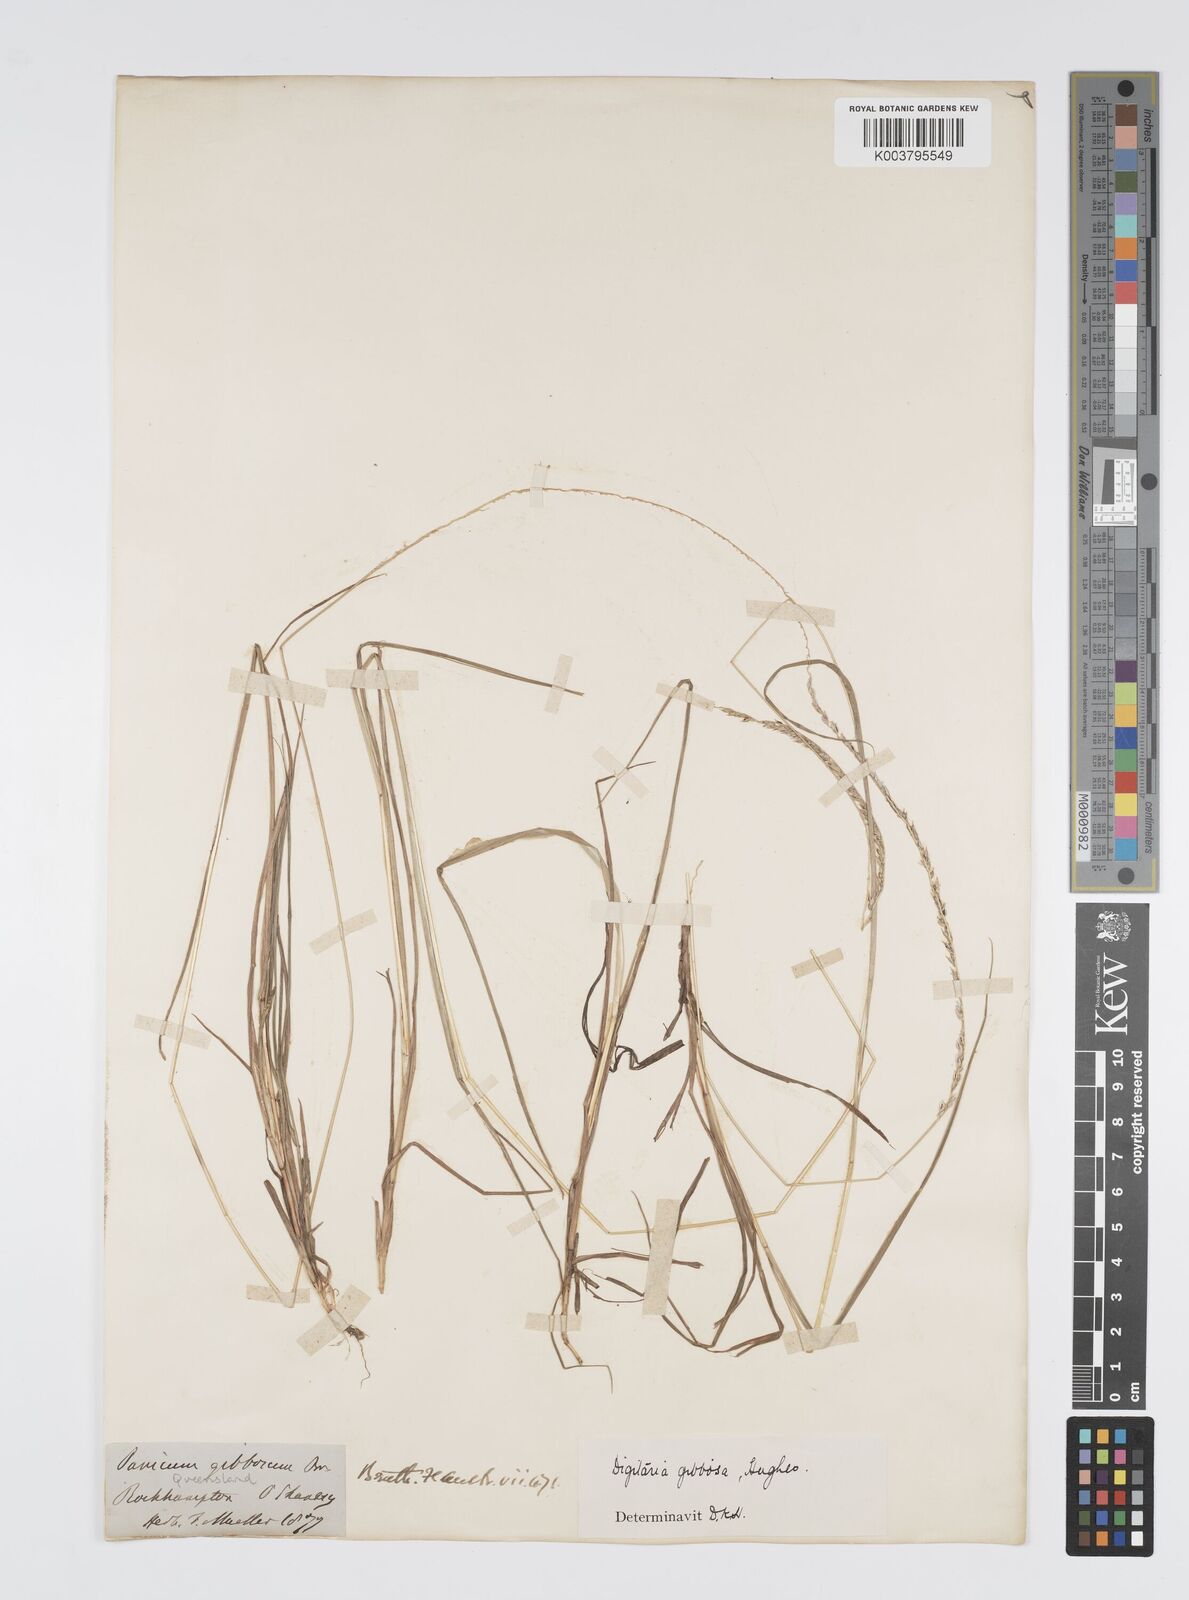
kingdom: Plantae
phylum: Tracheophyta
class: Liliopsida
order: Poales
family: Poaceae
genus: Digitaria
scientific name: Digitaria gibbosa
